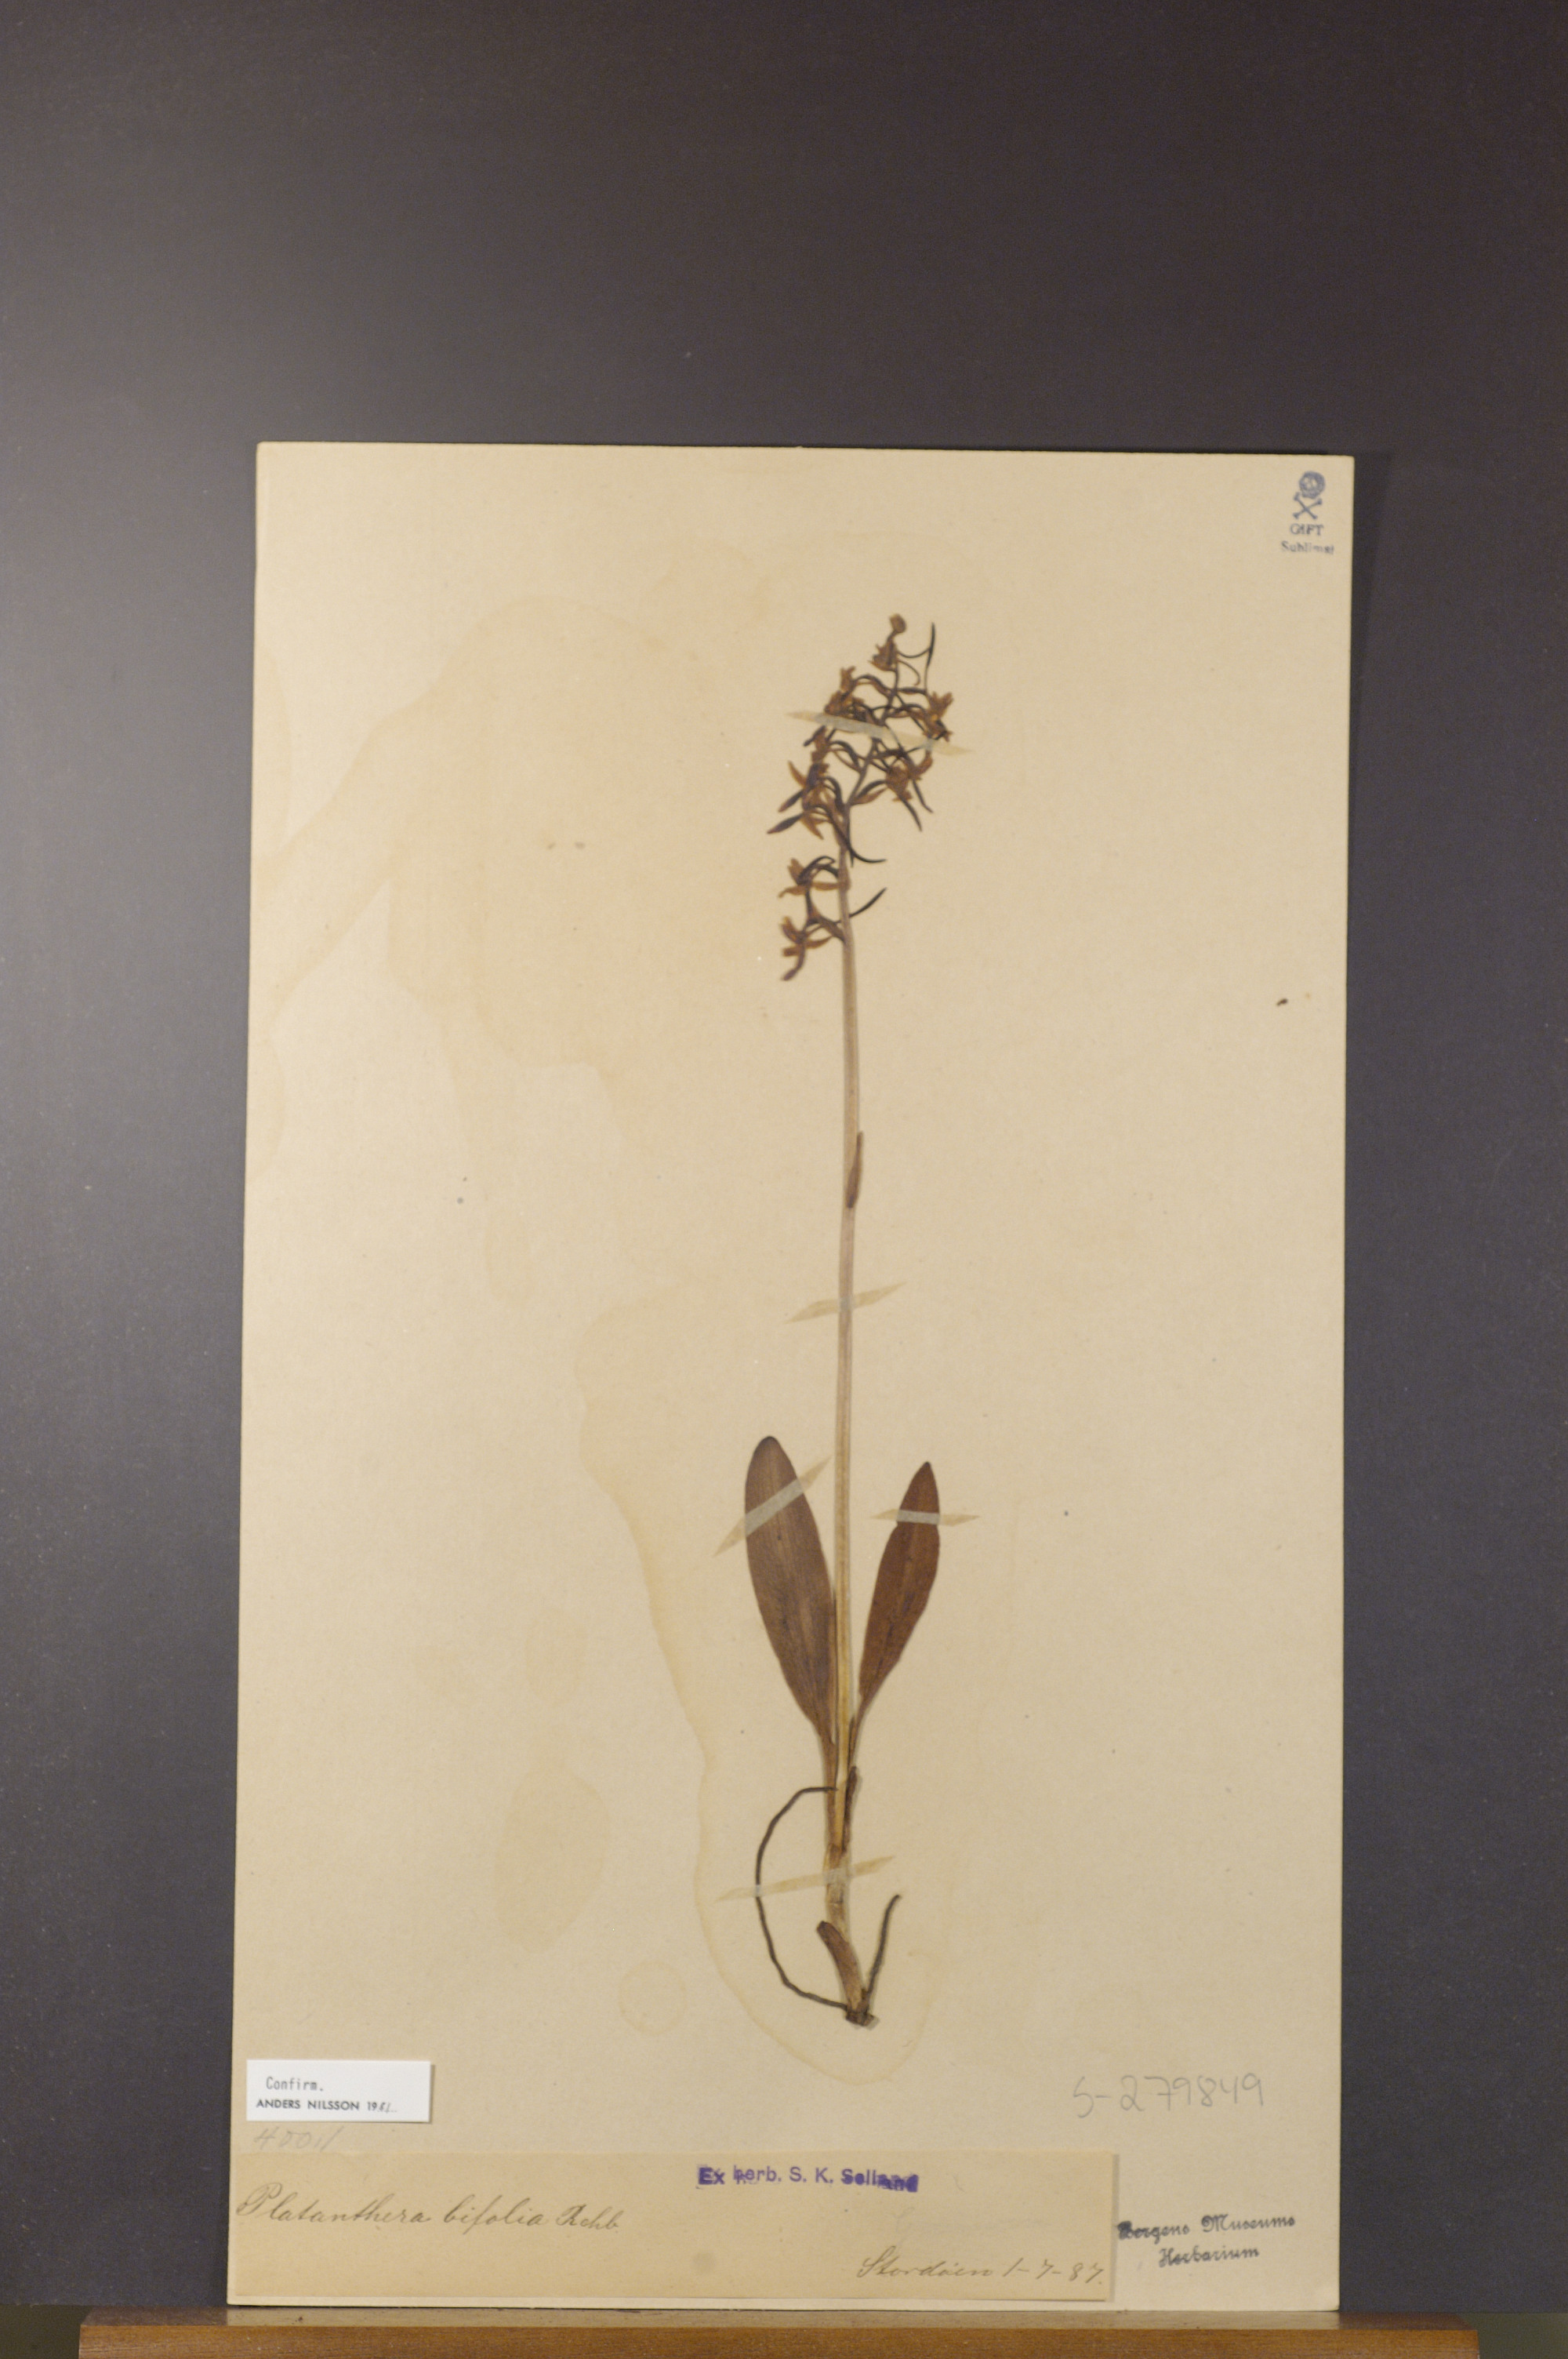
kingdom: Plantae
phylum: Tracheophyta
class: Liliopsida
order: Asparagales
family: Orchidaceae
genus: Platanthera
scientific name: Platanthera bifolia
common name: Lesser butterfly-orchid
